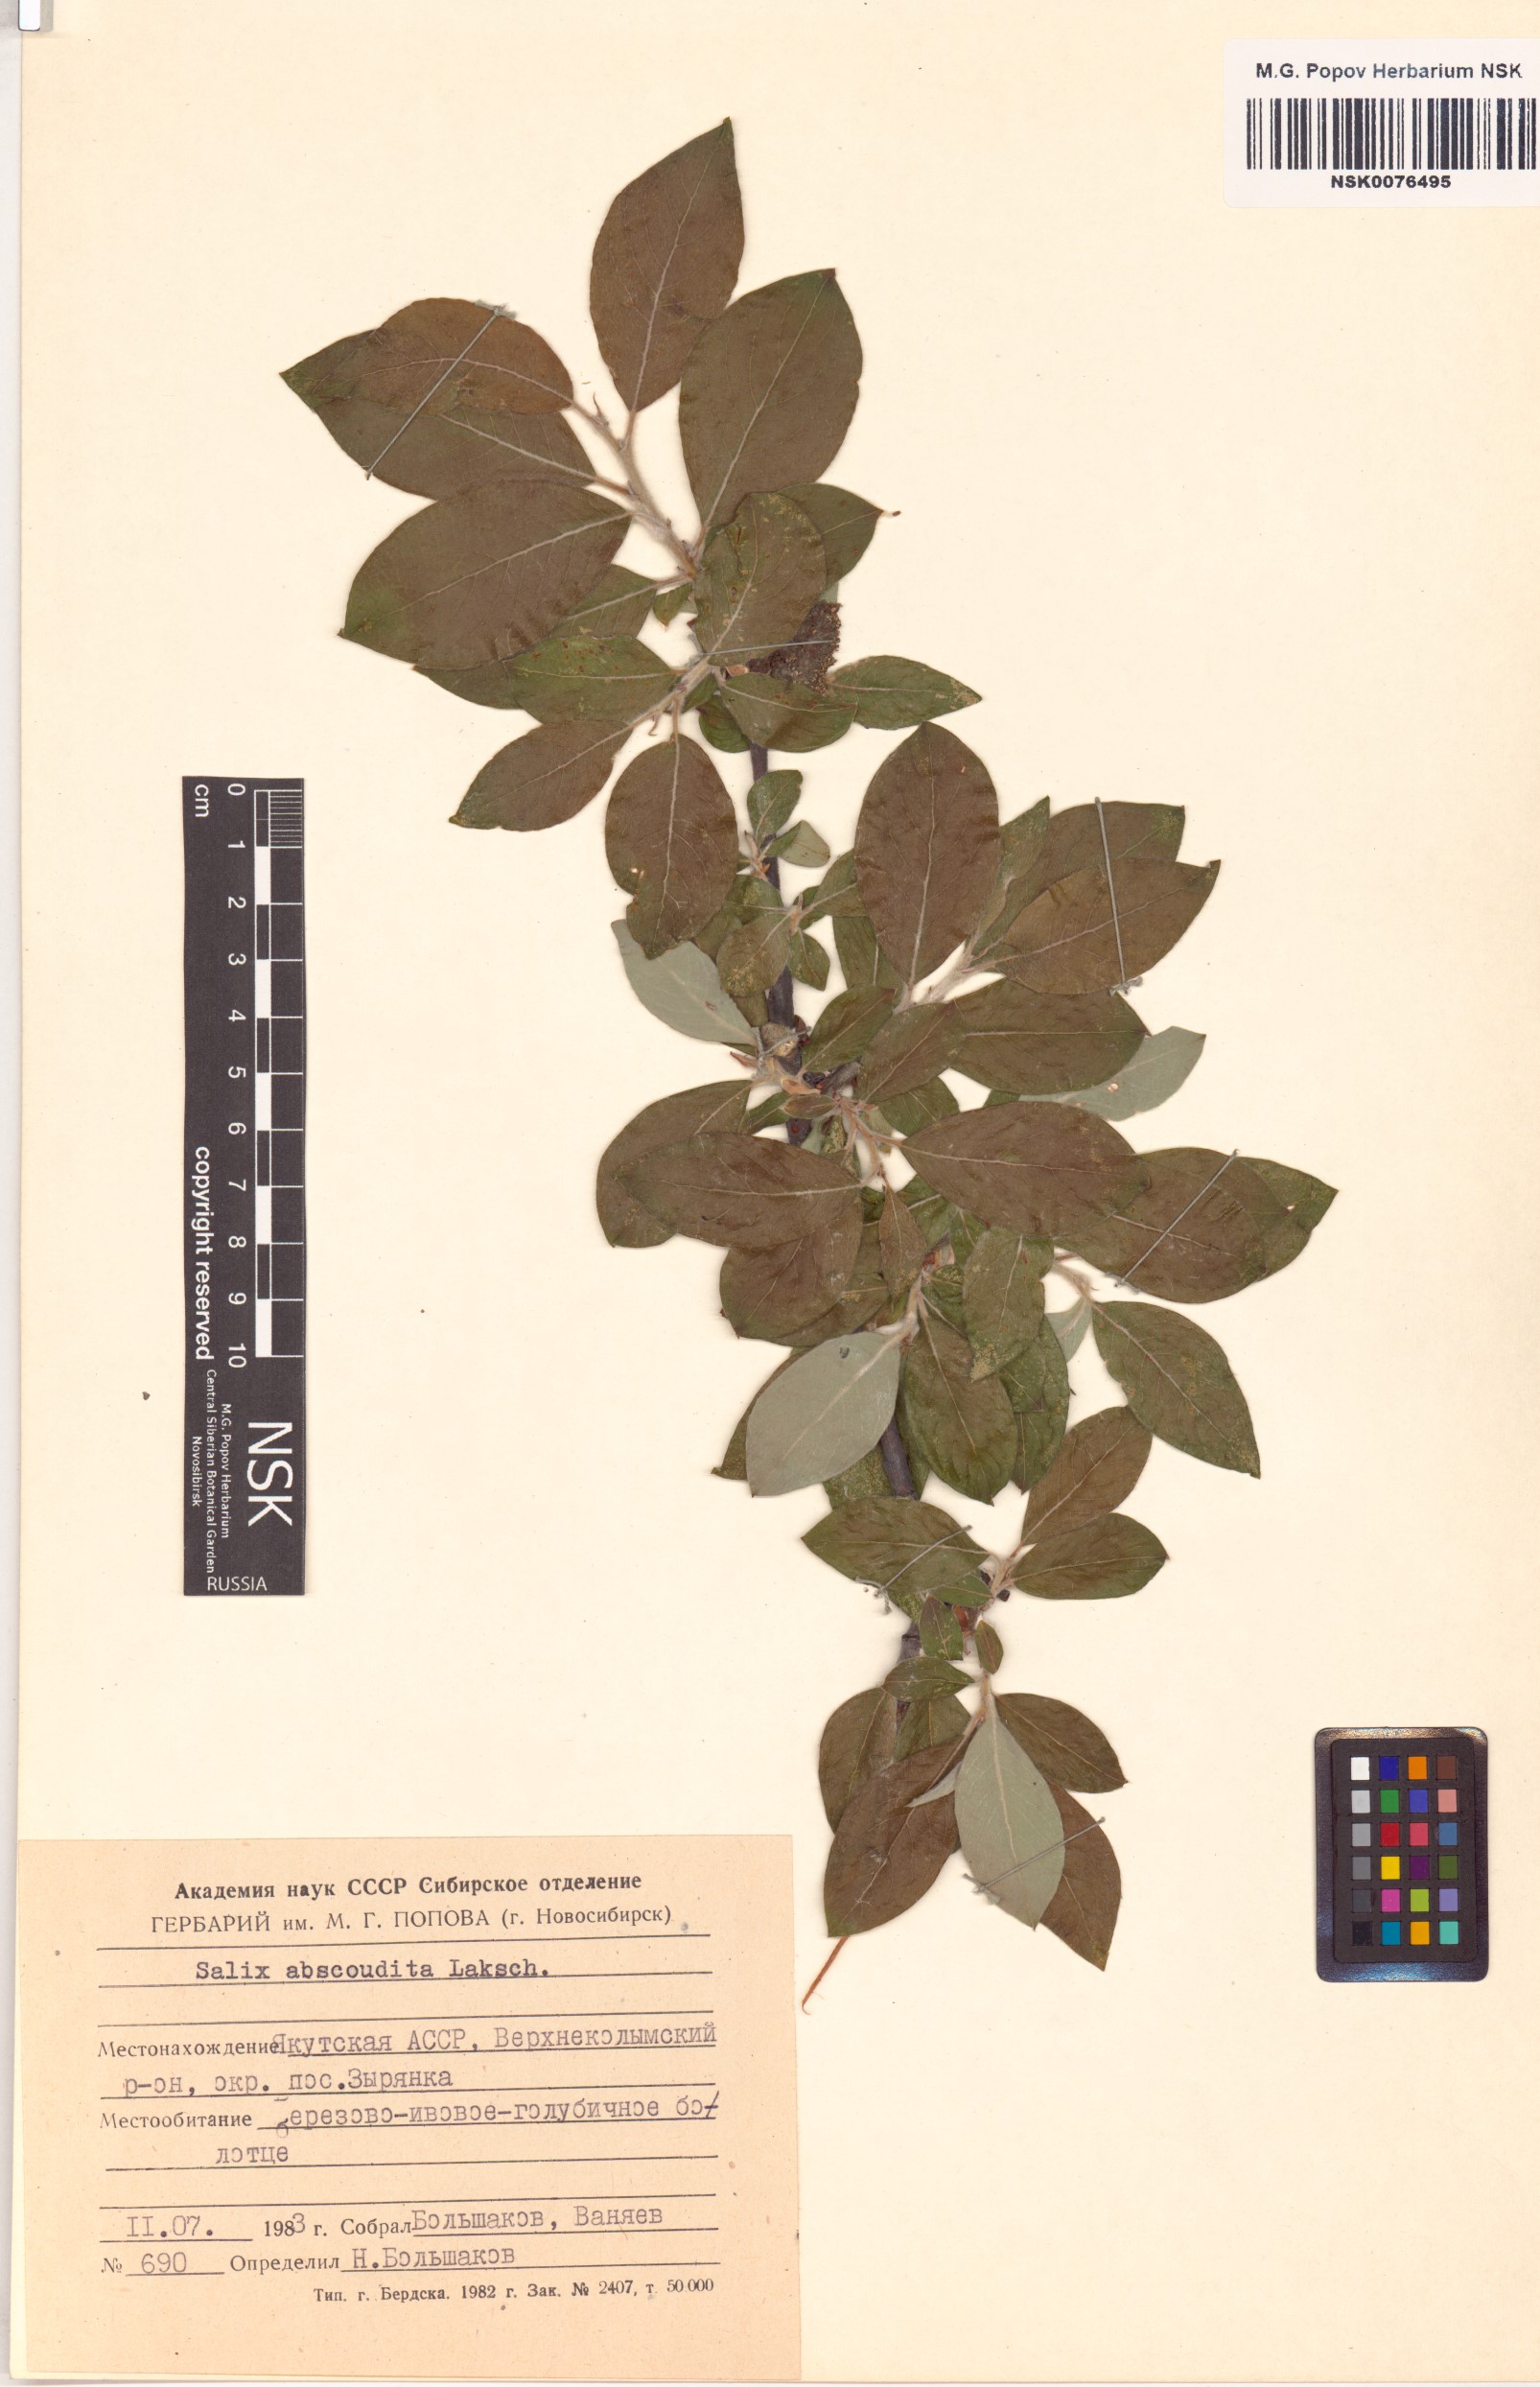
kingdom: Plantae
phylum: Tracheophyta
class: Magnoliopsida
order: Malpighiales
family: Salicaceae
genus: Salix
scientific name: Salix abscondita
